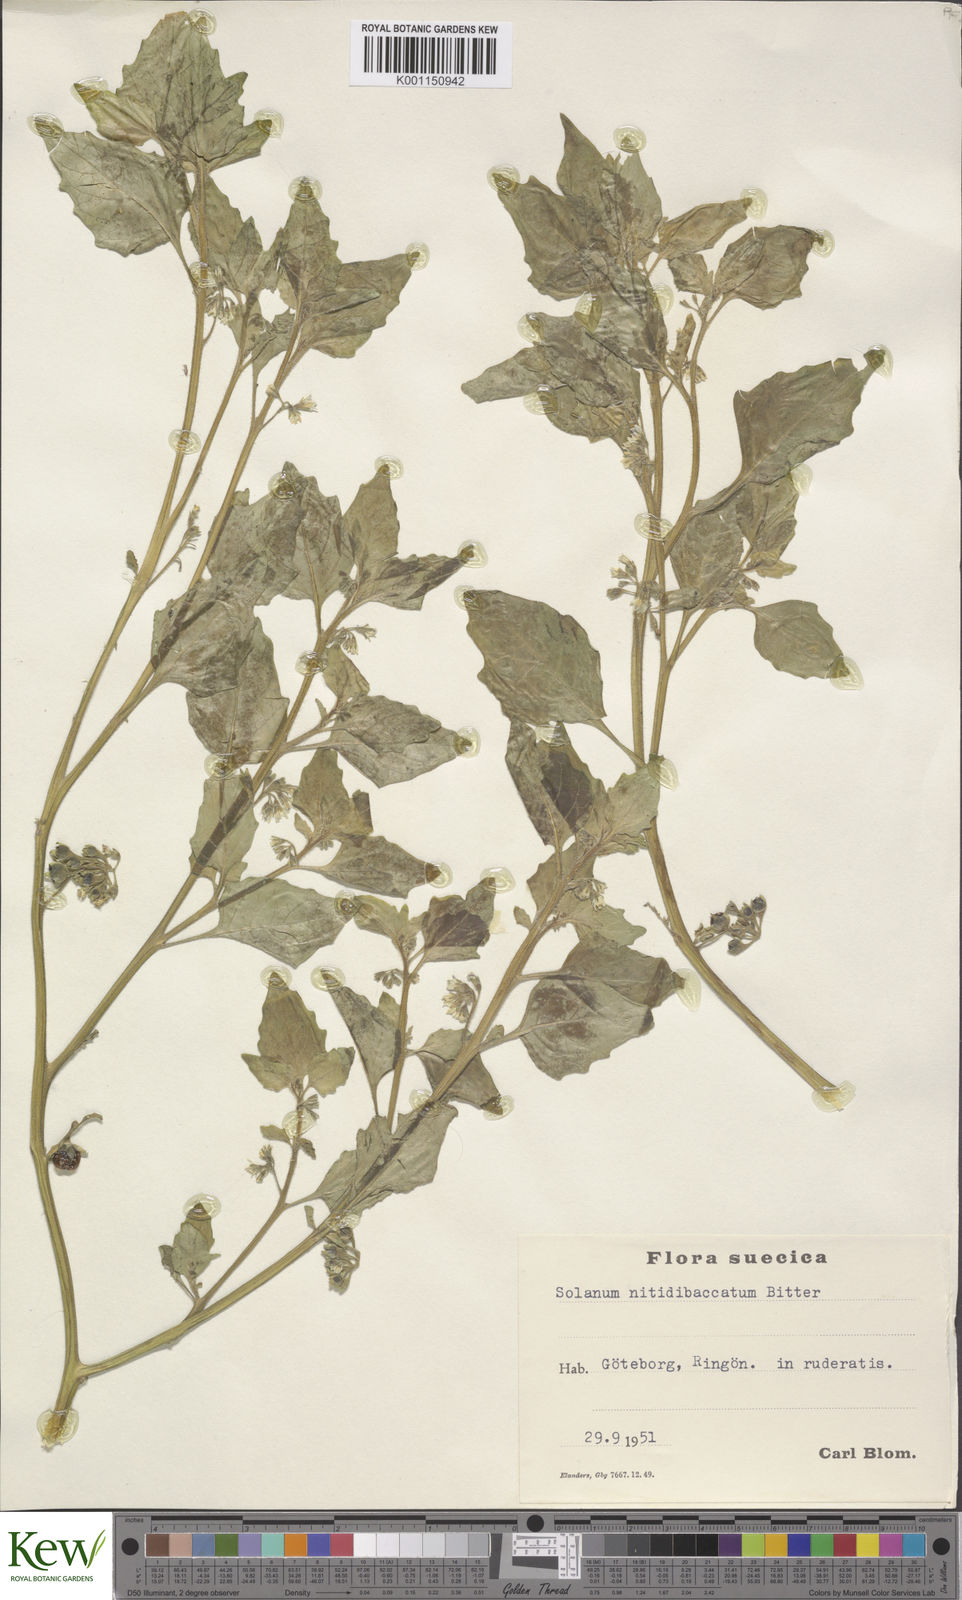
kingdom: Plantae
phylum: Tracheophyta
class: Magnoliopsida
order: Solanales
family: Solanaceae
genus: Solanum
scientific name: Solanum nitidibaccatum
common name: Hairy nightshade
